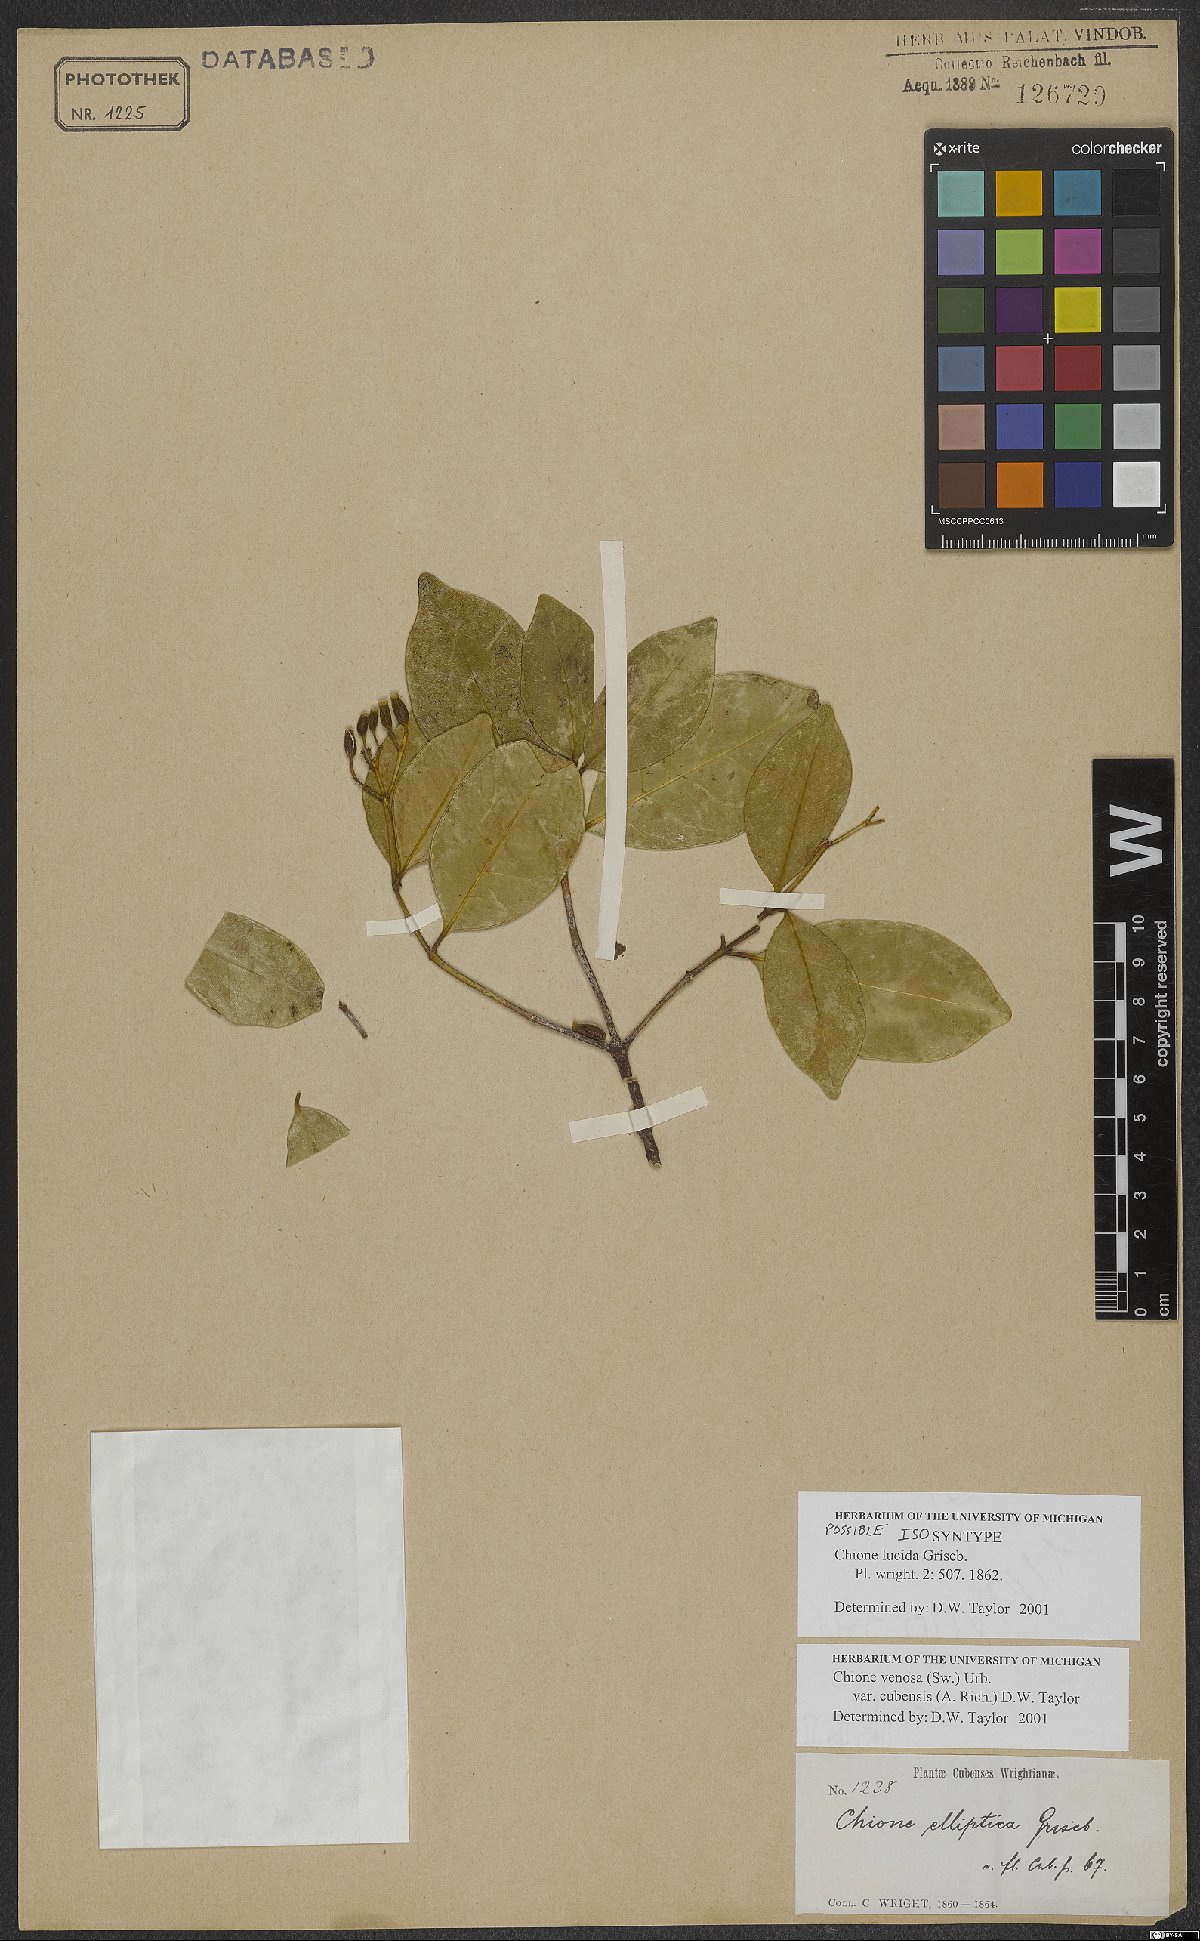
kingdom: Plantae
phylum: Tracheophyta
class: Magnoliopsida
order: Gentianales
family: Rubiaceae
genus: Chione
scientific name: Chione venosa
